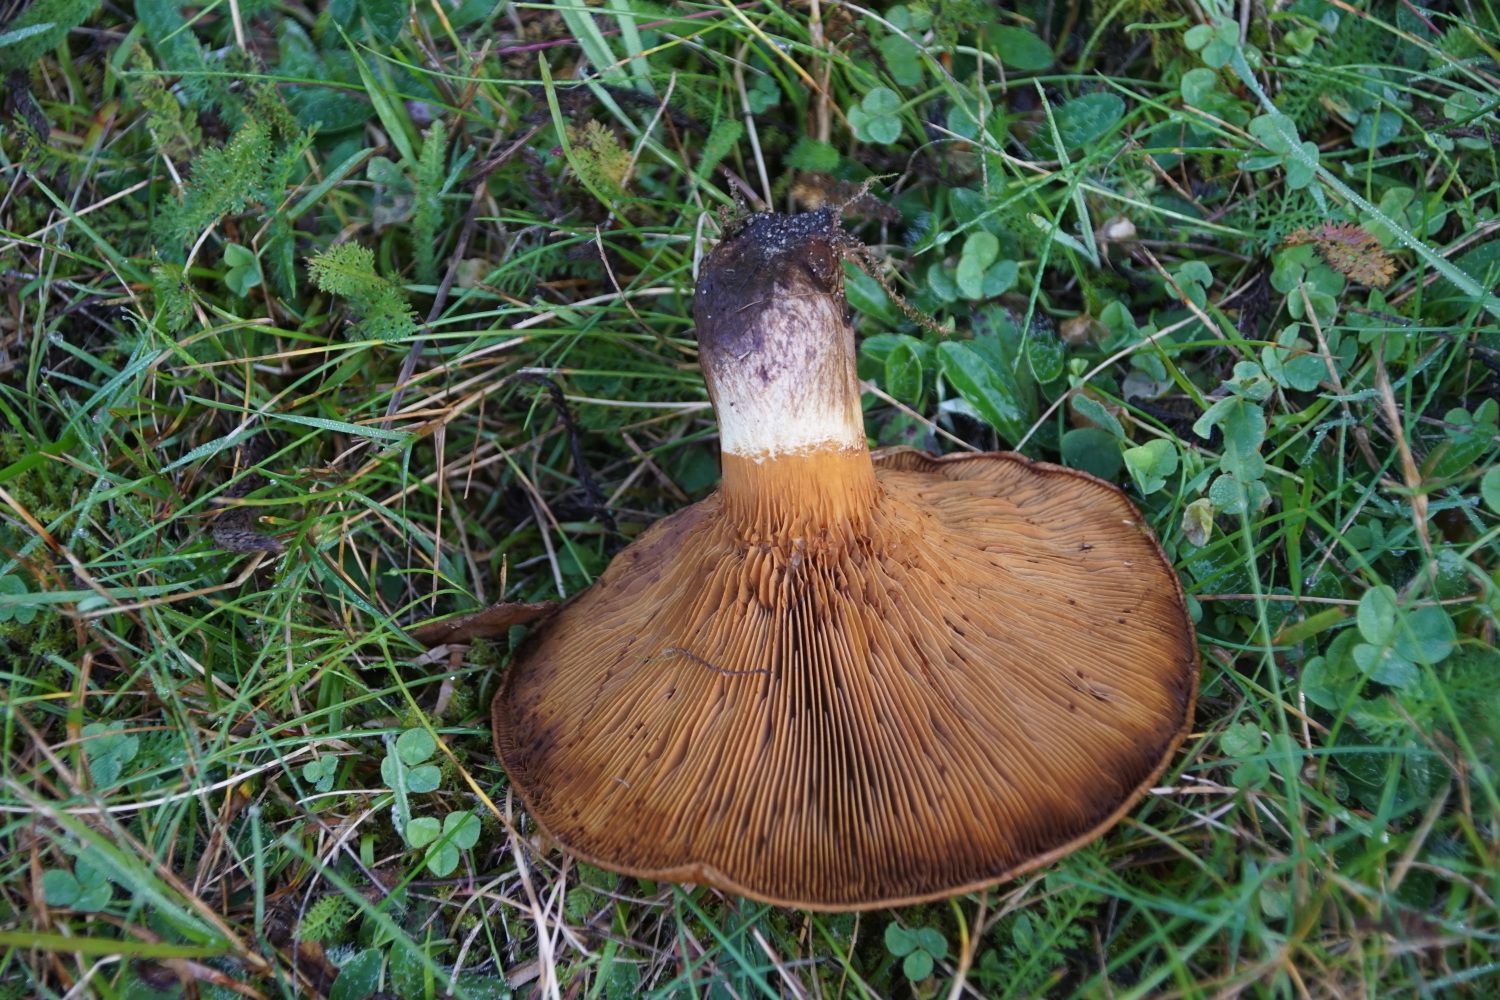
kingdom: Fungi
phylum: Basidiomycota
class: Agaricomycetes
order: Boletales
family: Paxillaceae
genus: Paxillus
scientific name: Paxillus obscurisporus
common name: mahognisporet netbladhat
